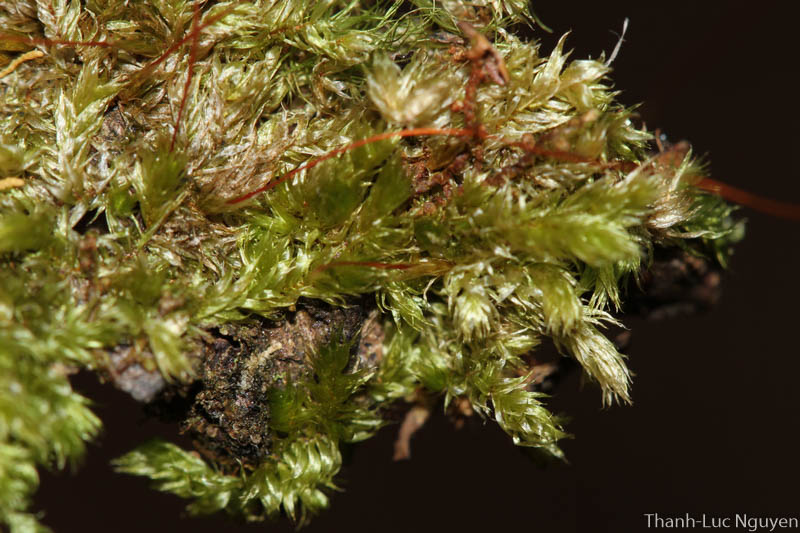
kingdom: Plantae
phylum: Bryophyta
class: Bryopsida
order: Hypnales
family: Sematophyllaceae
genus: Sematophyllum
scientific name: Sematophyllum subhumile
